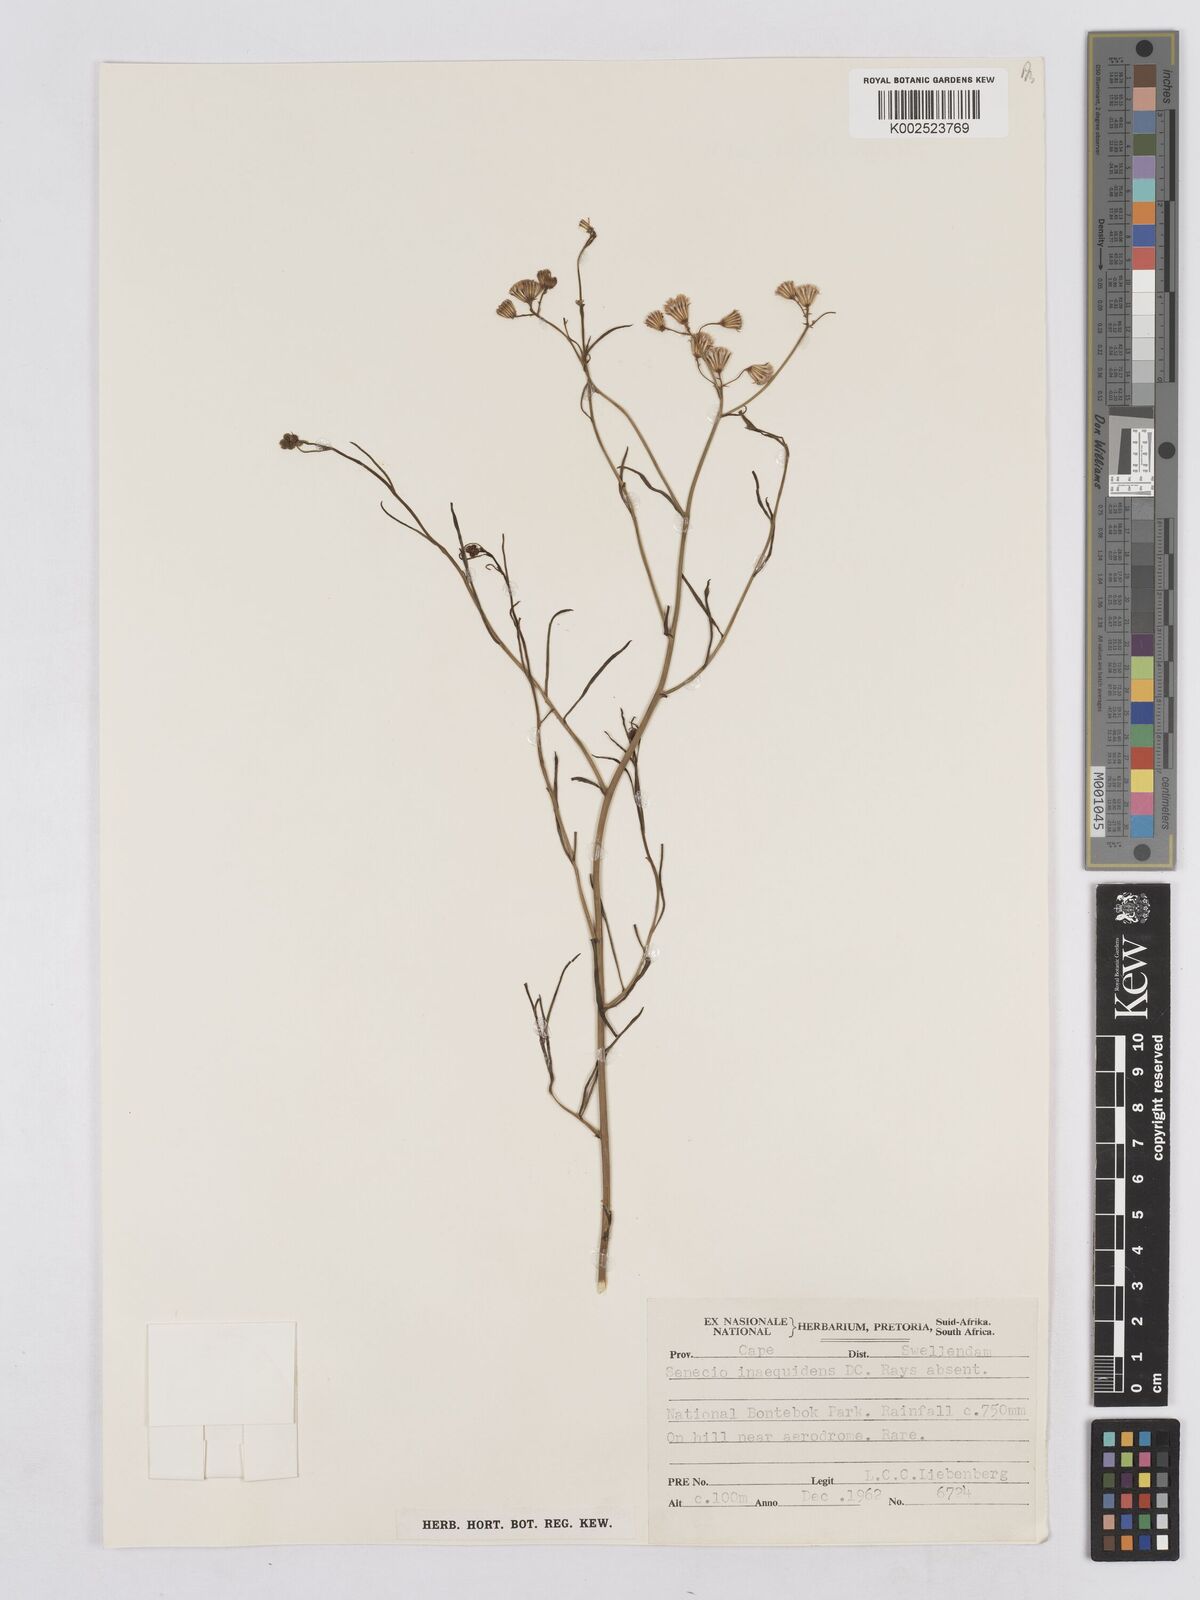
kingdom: Plantae
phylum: Tracheophyta
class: Magnoliopsida
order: Asterales
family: Asteraceae
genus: Senecio
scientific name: Senecio vimineus
